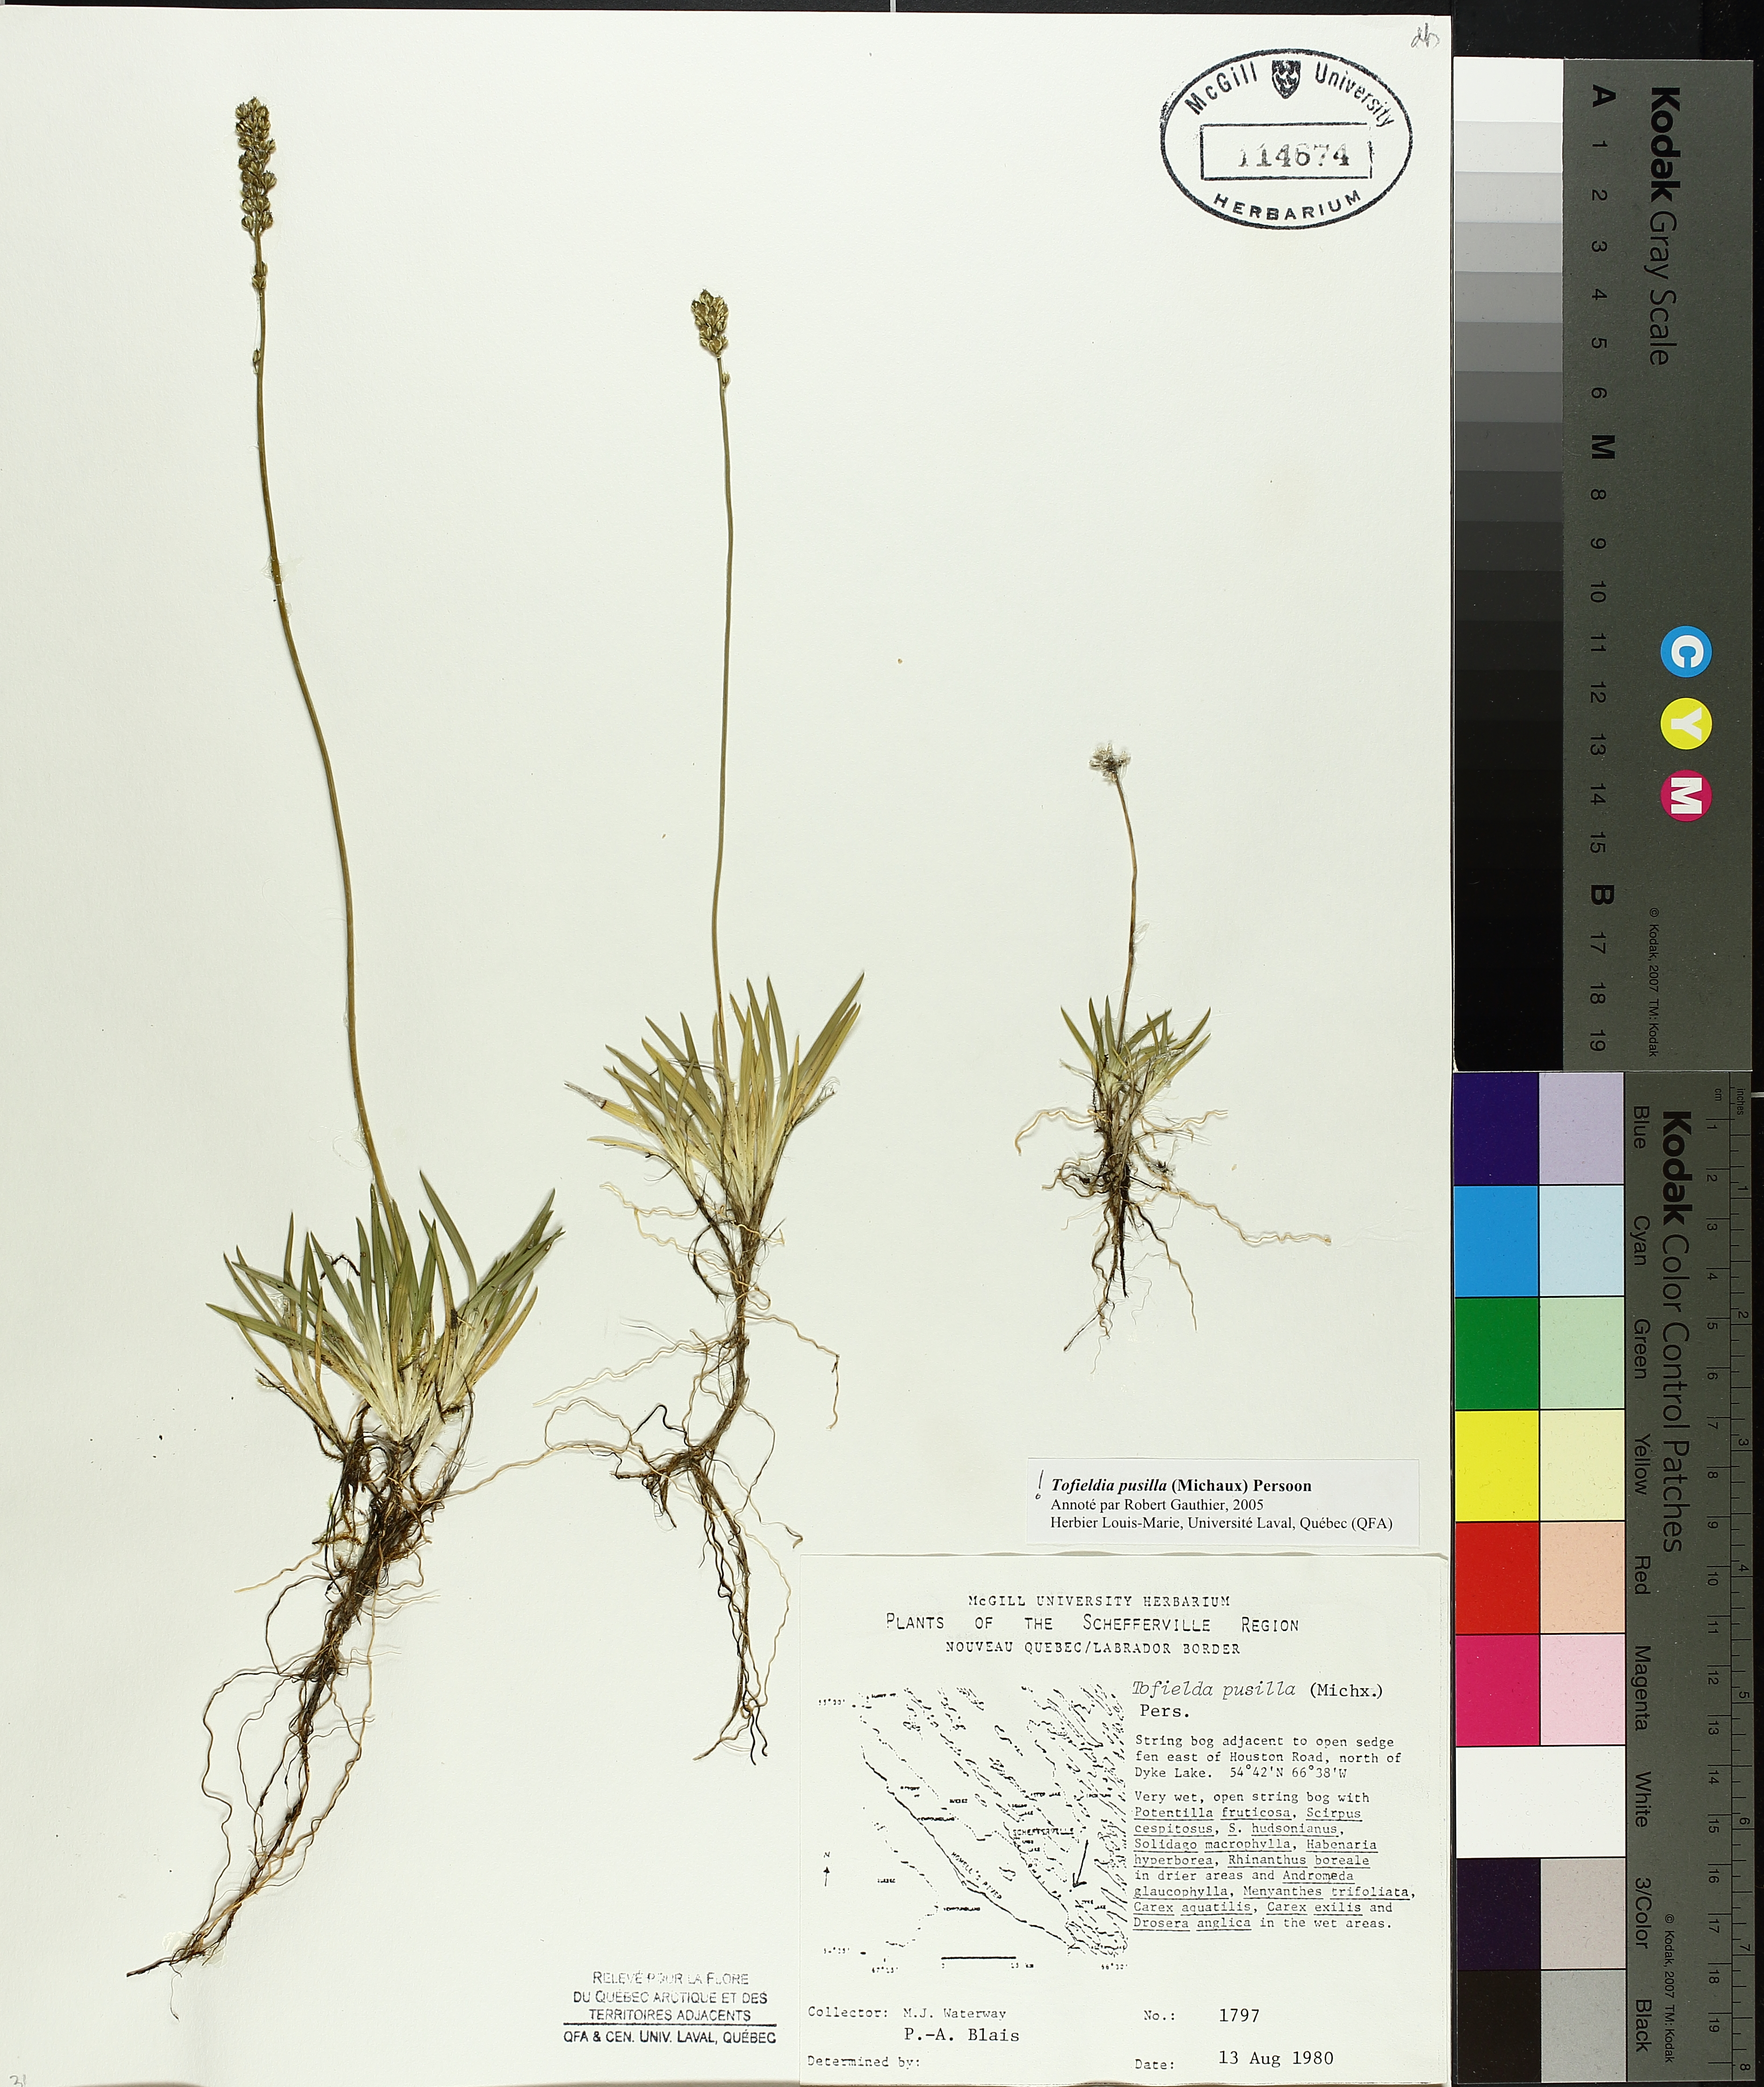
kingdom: Plantae
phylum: Tracheophyta
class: Liliopsida
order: Alismatales
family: Tofieldiaceae
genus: Tofieldia
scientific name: Tofieldia pusilla
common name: Scottish false asphodel
